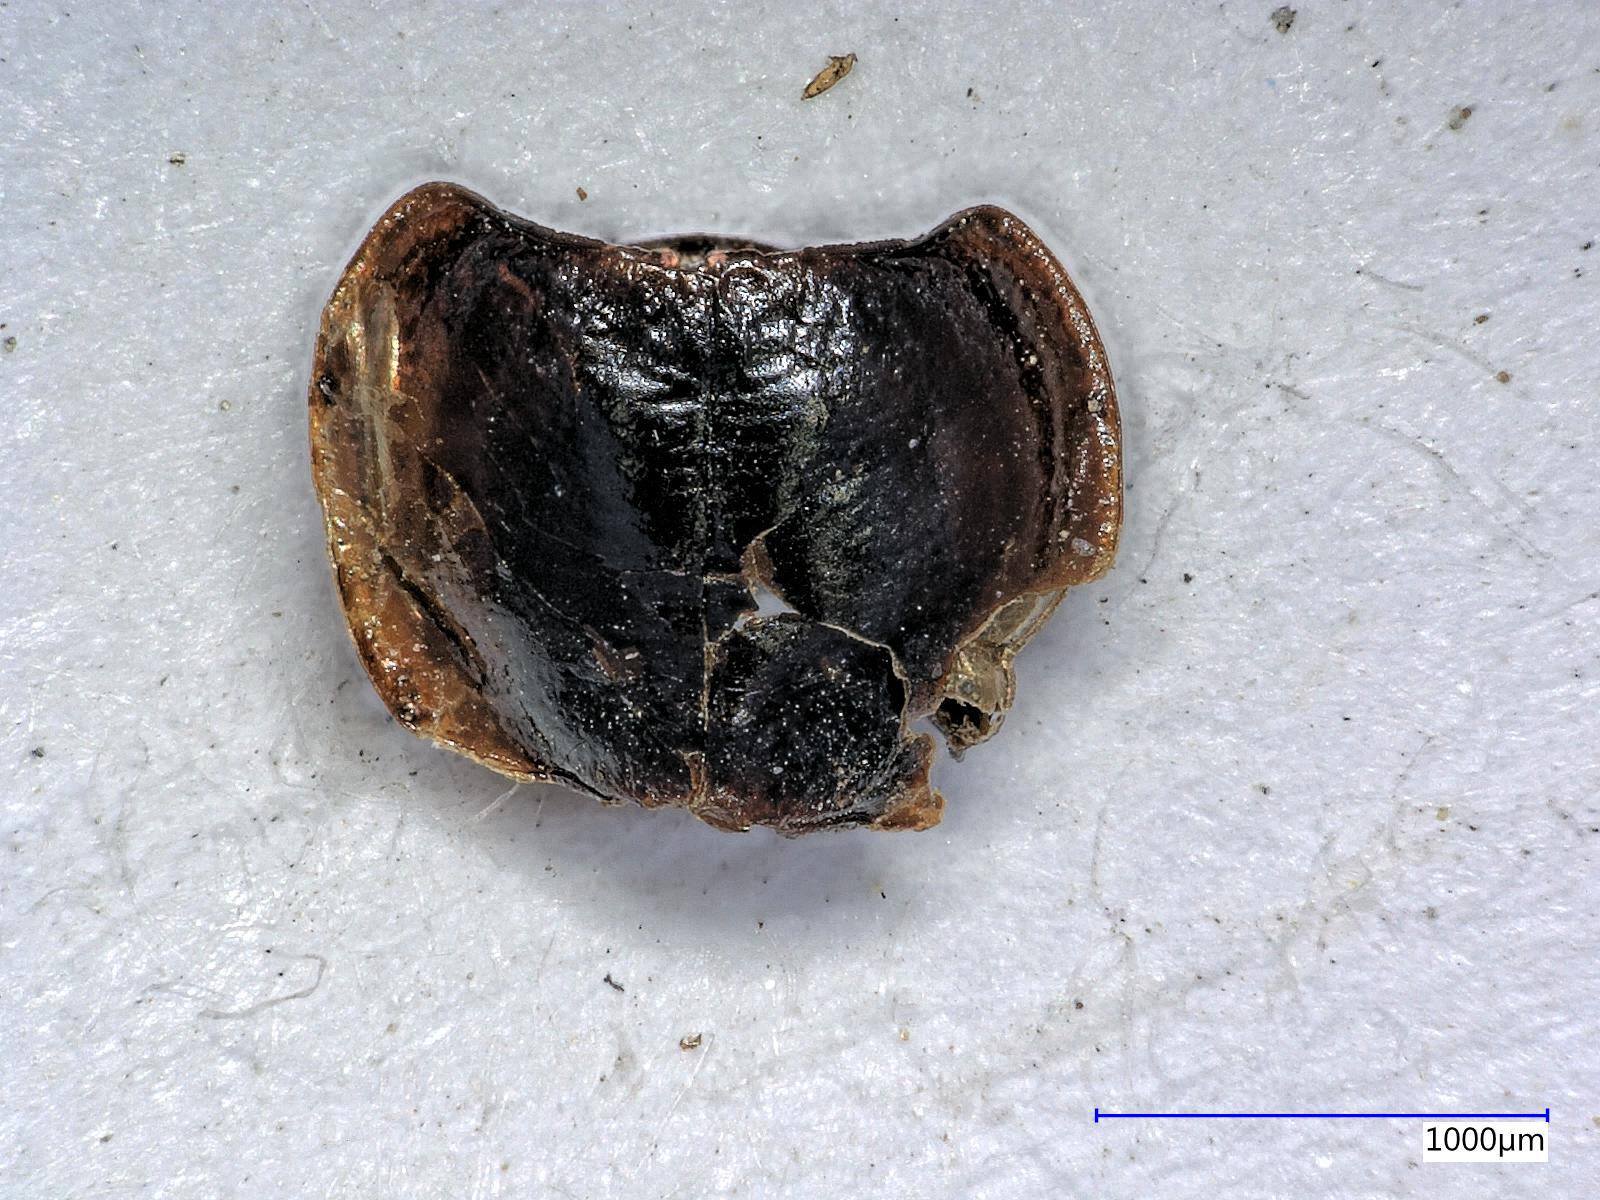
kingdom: Animalia
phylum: Arthropoda
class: Insecta
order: Coleoptera
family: Carabidae
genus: Tanystoma
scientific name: Tanystoma maculicolle
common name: Tule beetle
